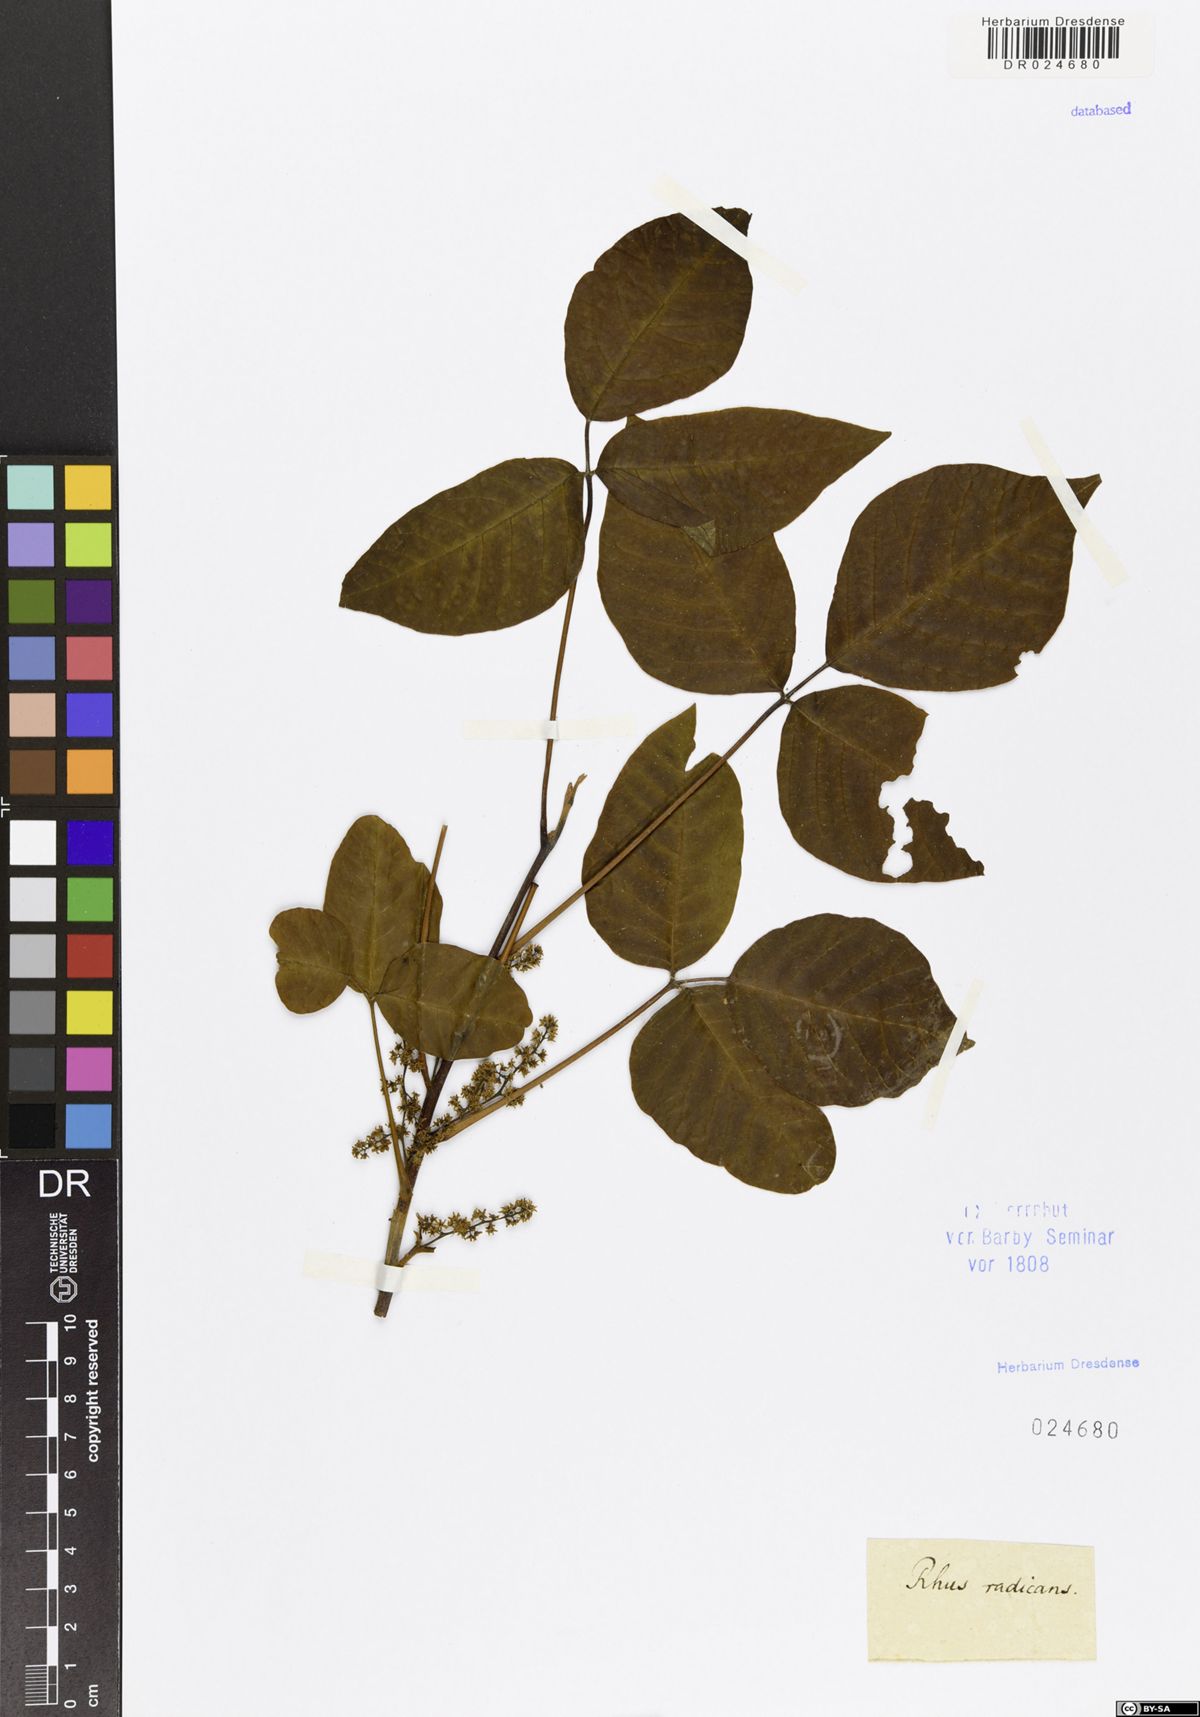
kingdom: Plantae
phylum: Tracheophyta
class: Magnoliopsida
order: Sapindales
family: Anacardiaceae
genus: Toxicodendron
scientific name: Toxicodendron radicans
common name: Poison ivy
